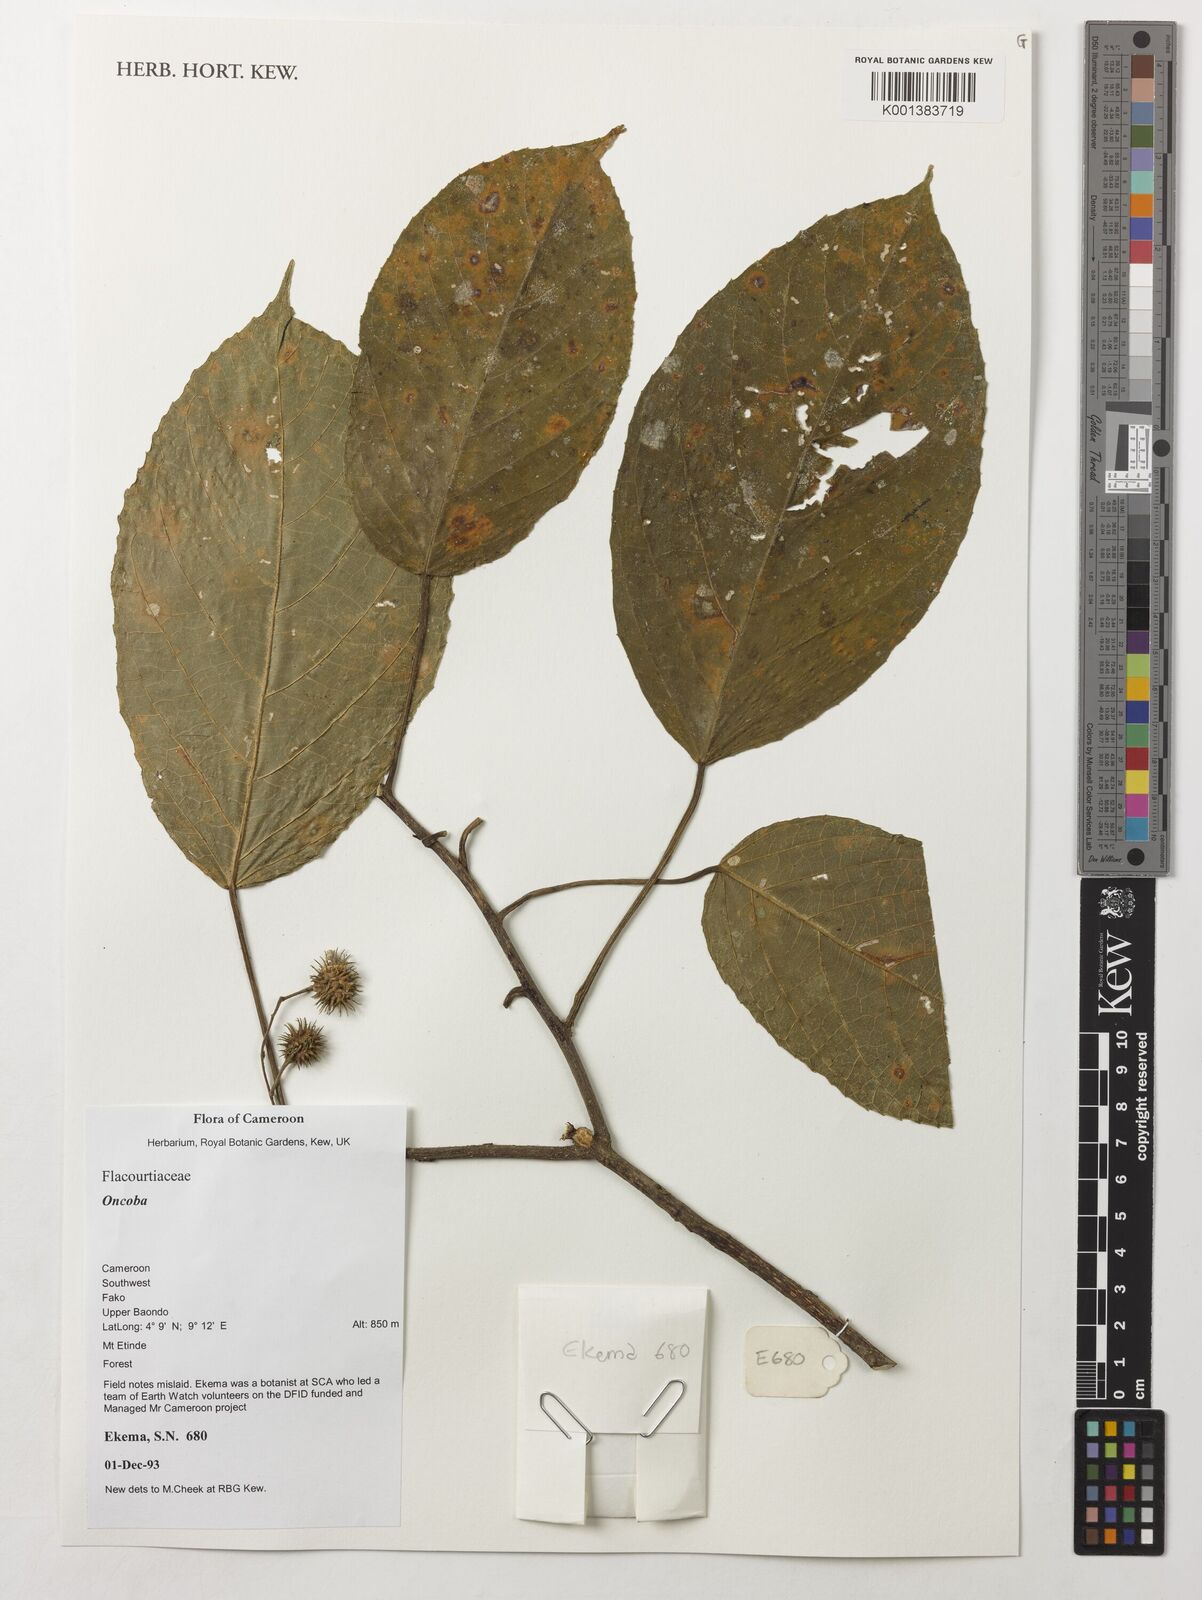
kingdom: Plantae
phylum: Tracheophyta
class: Magnoliopsida
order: Malpighiales
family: Salicaceae
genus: Oncoba
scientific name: Oncoba
